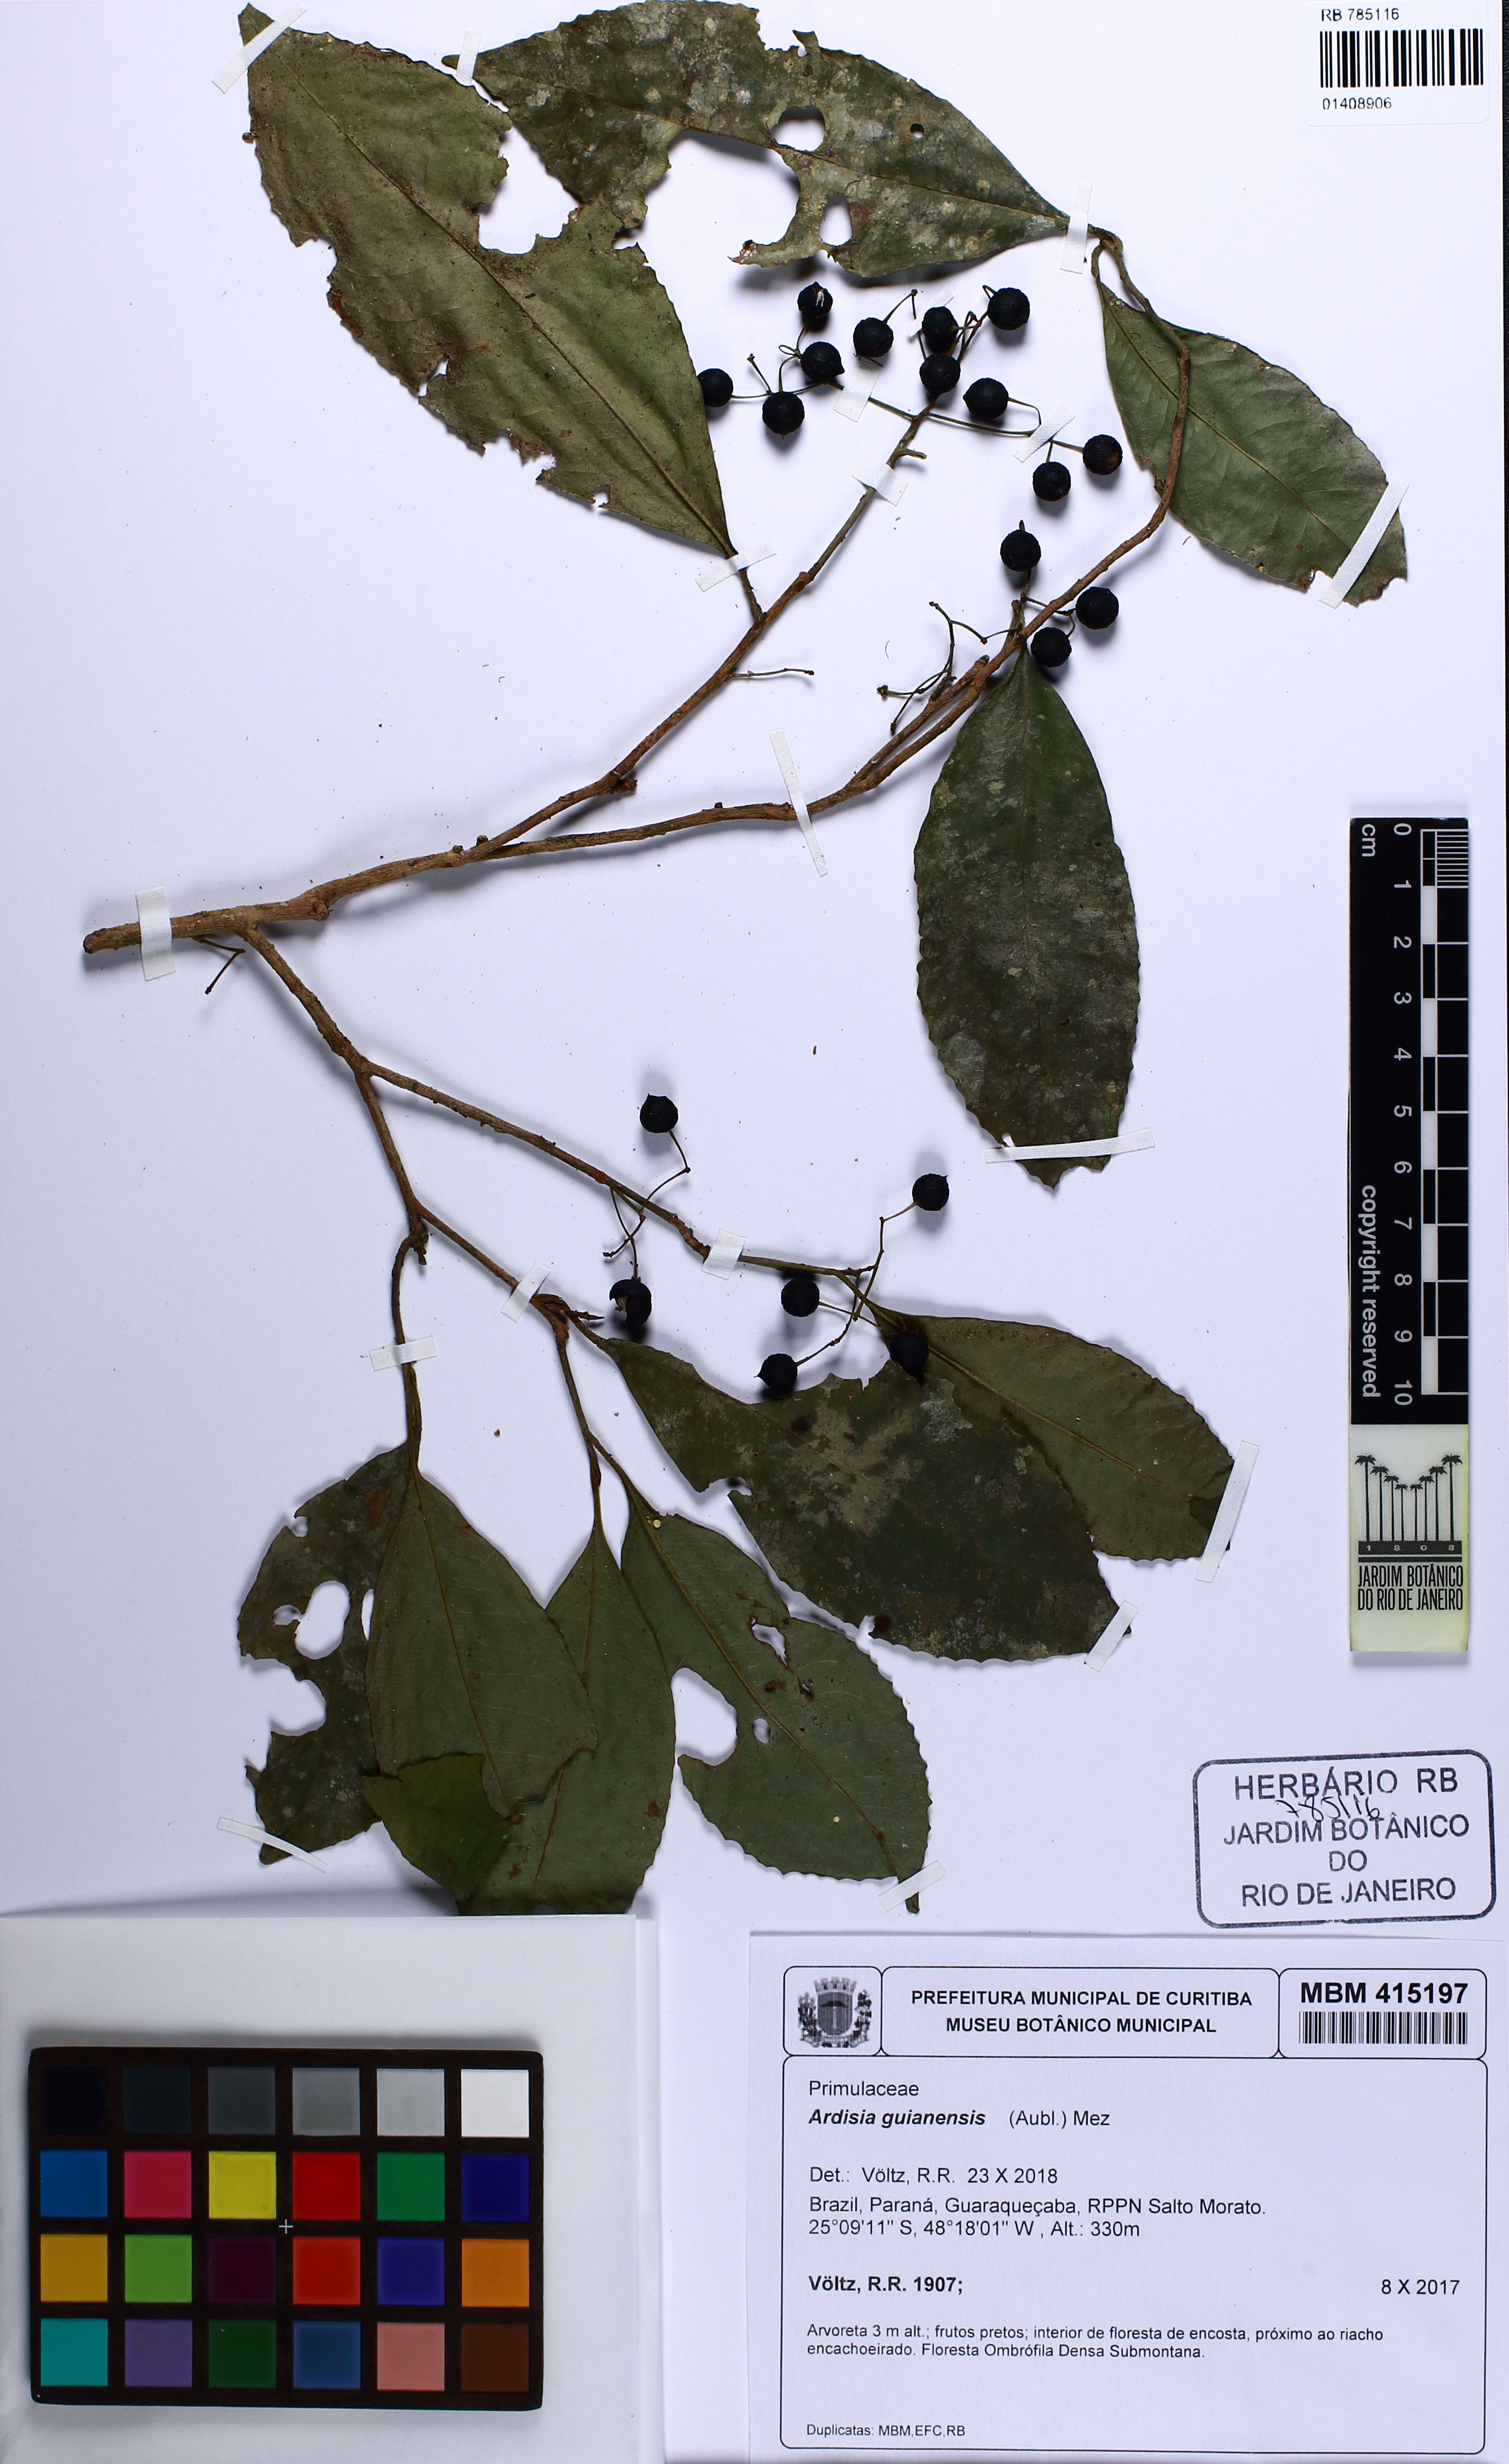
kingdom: Plantae
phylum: Tracheophyta
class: Magnoliopsida
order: Ericales
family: Primulaceae
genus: Ardisia
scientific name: Ardisia guianensis
